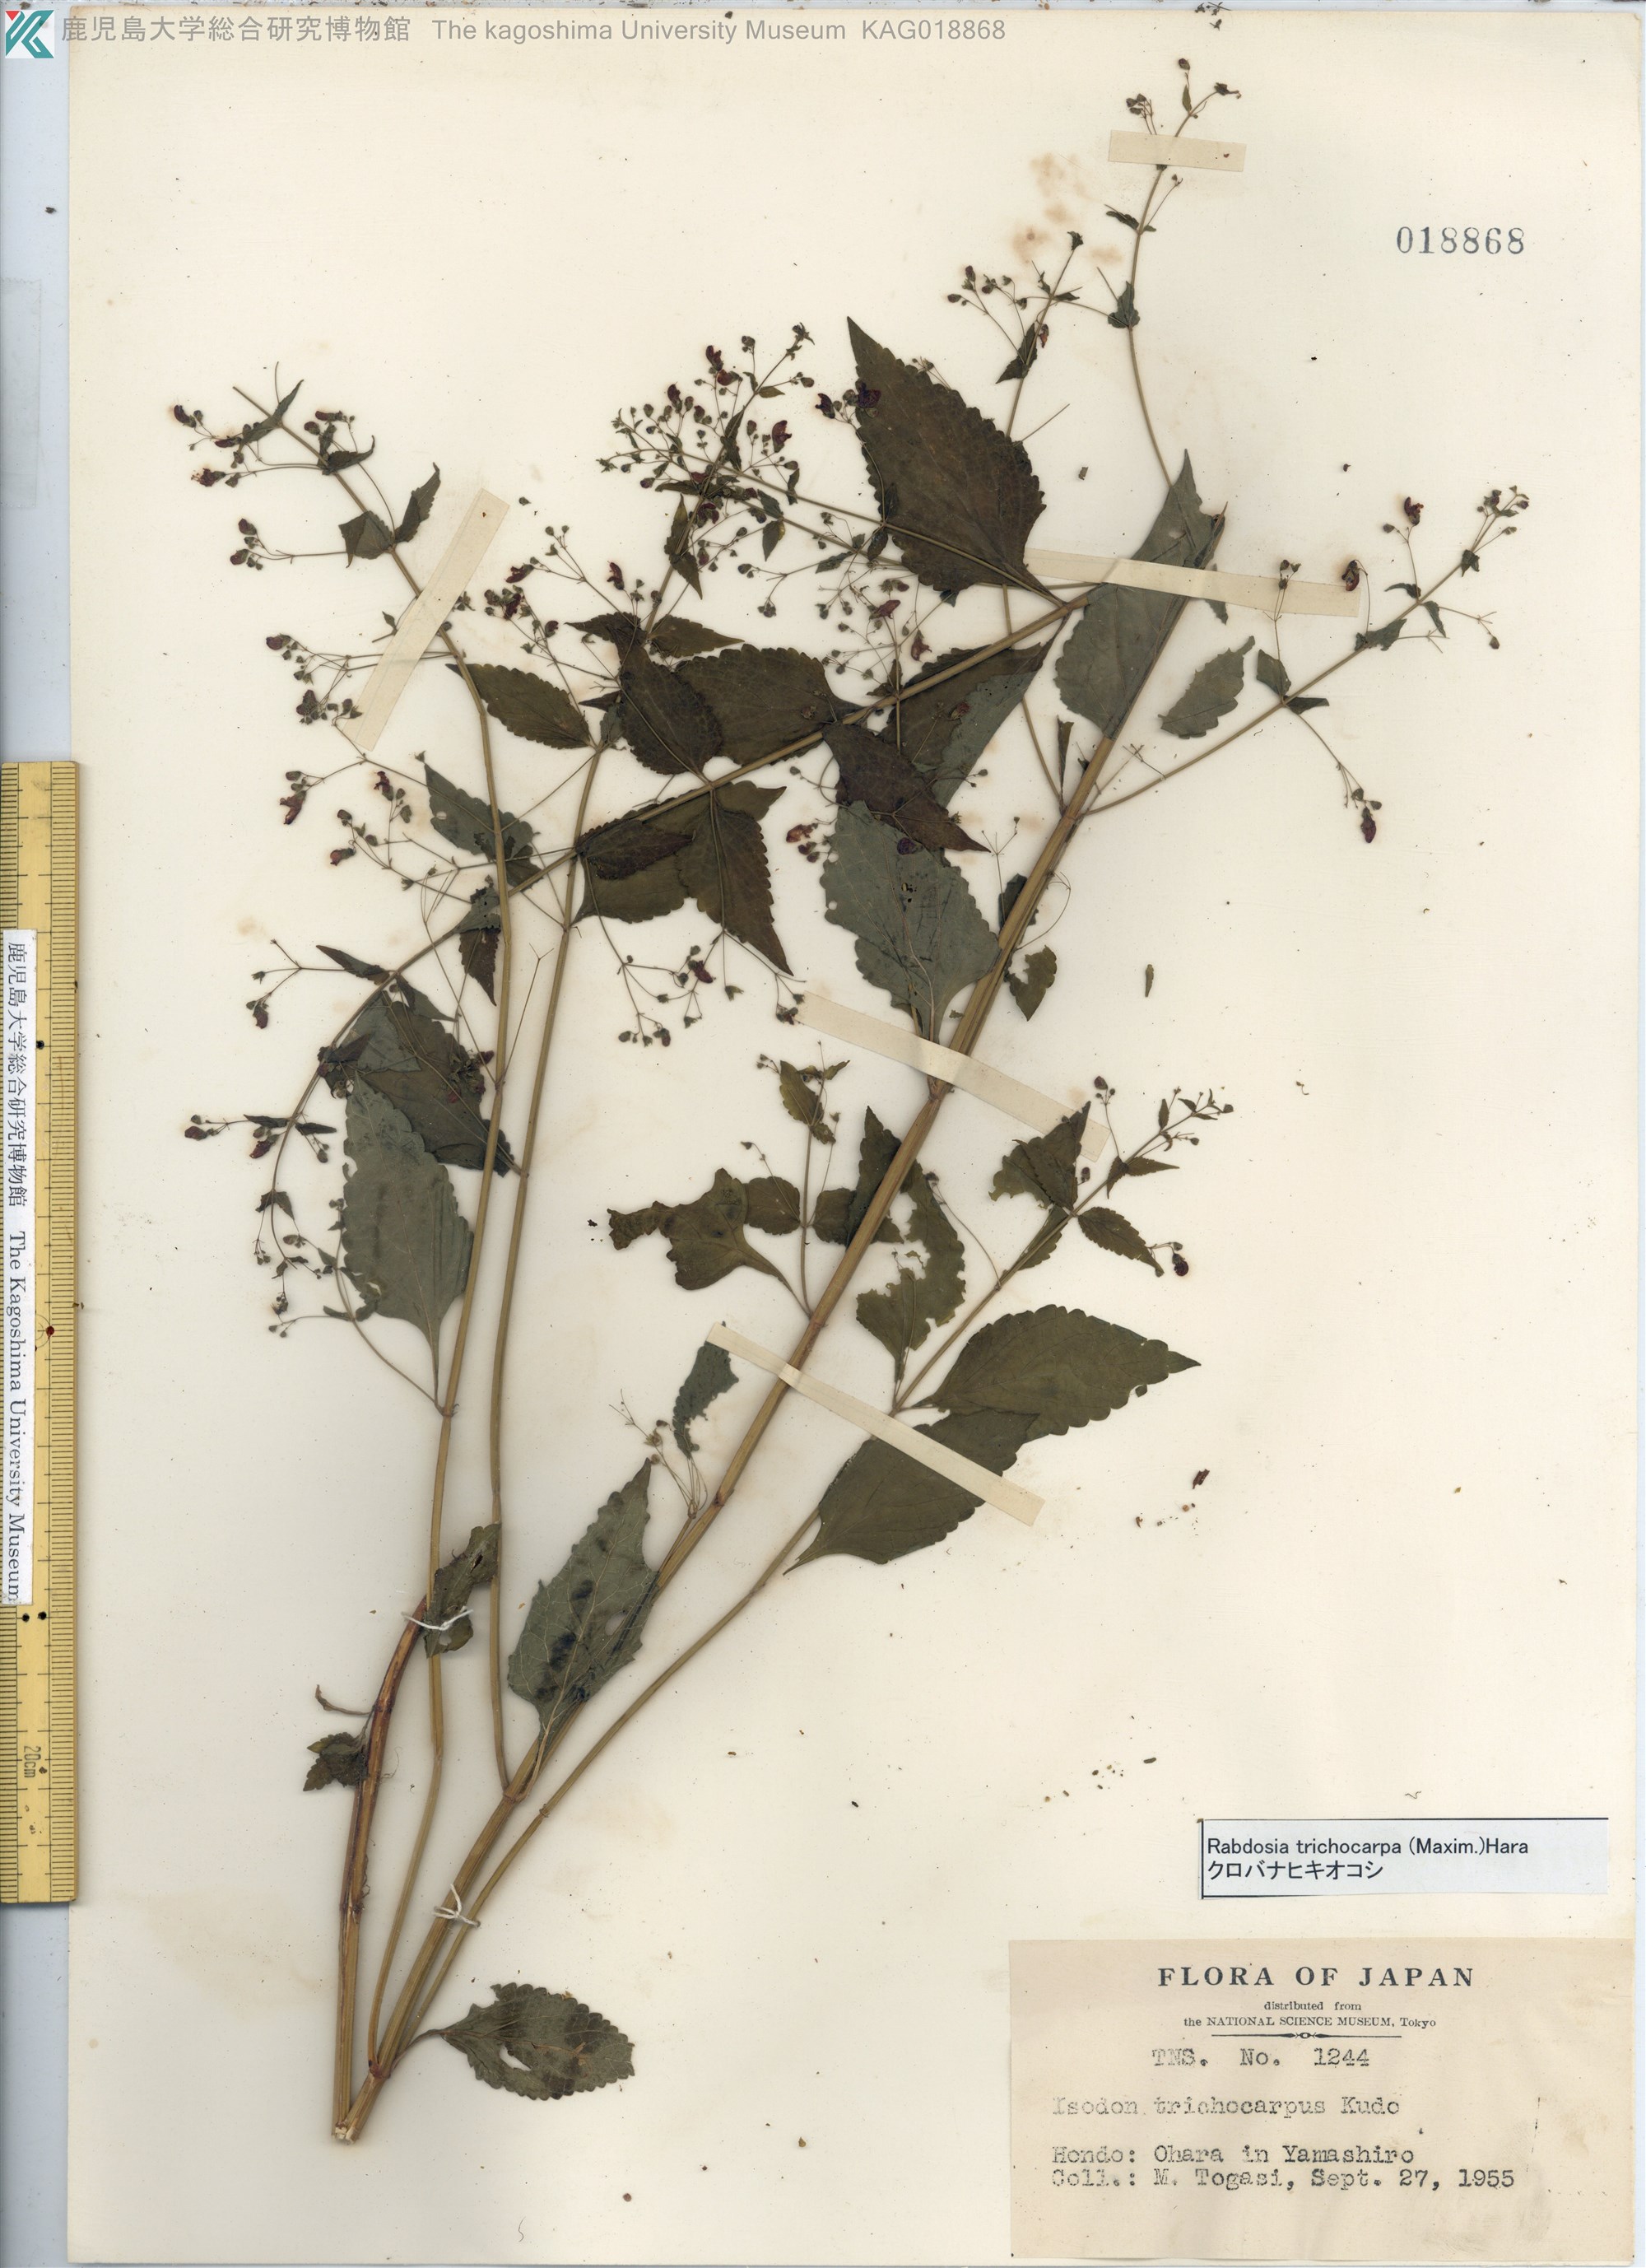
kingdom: Plantae
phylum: Tracheophyta
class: Magnoliopsida
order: Lamiales
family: Lamiaceae
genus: Isodon
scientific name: Isodon trichocarpus
